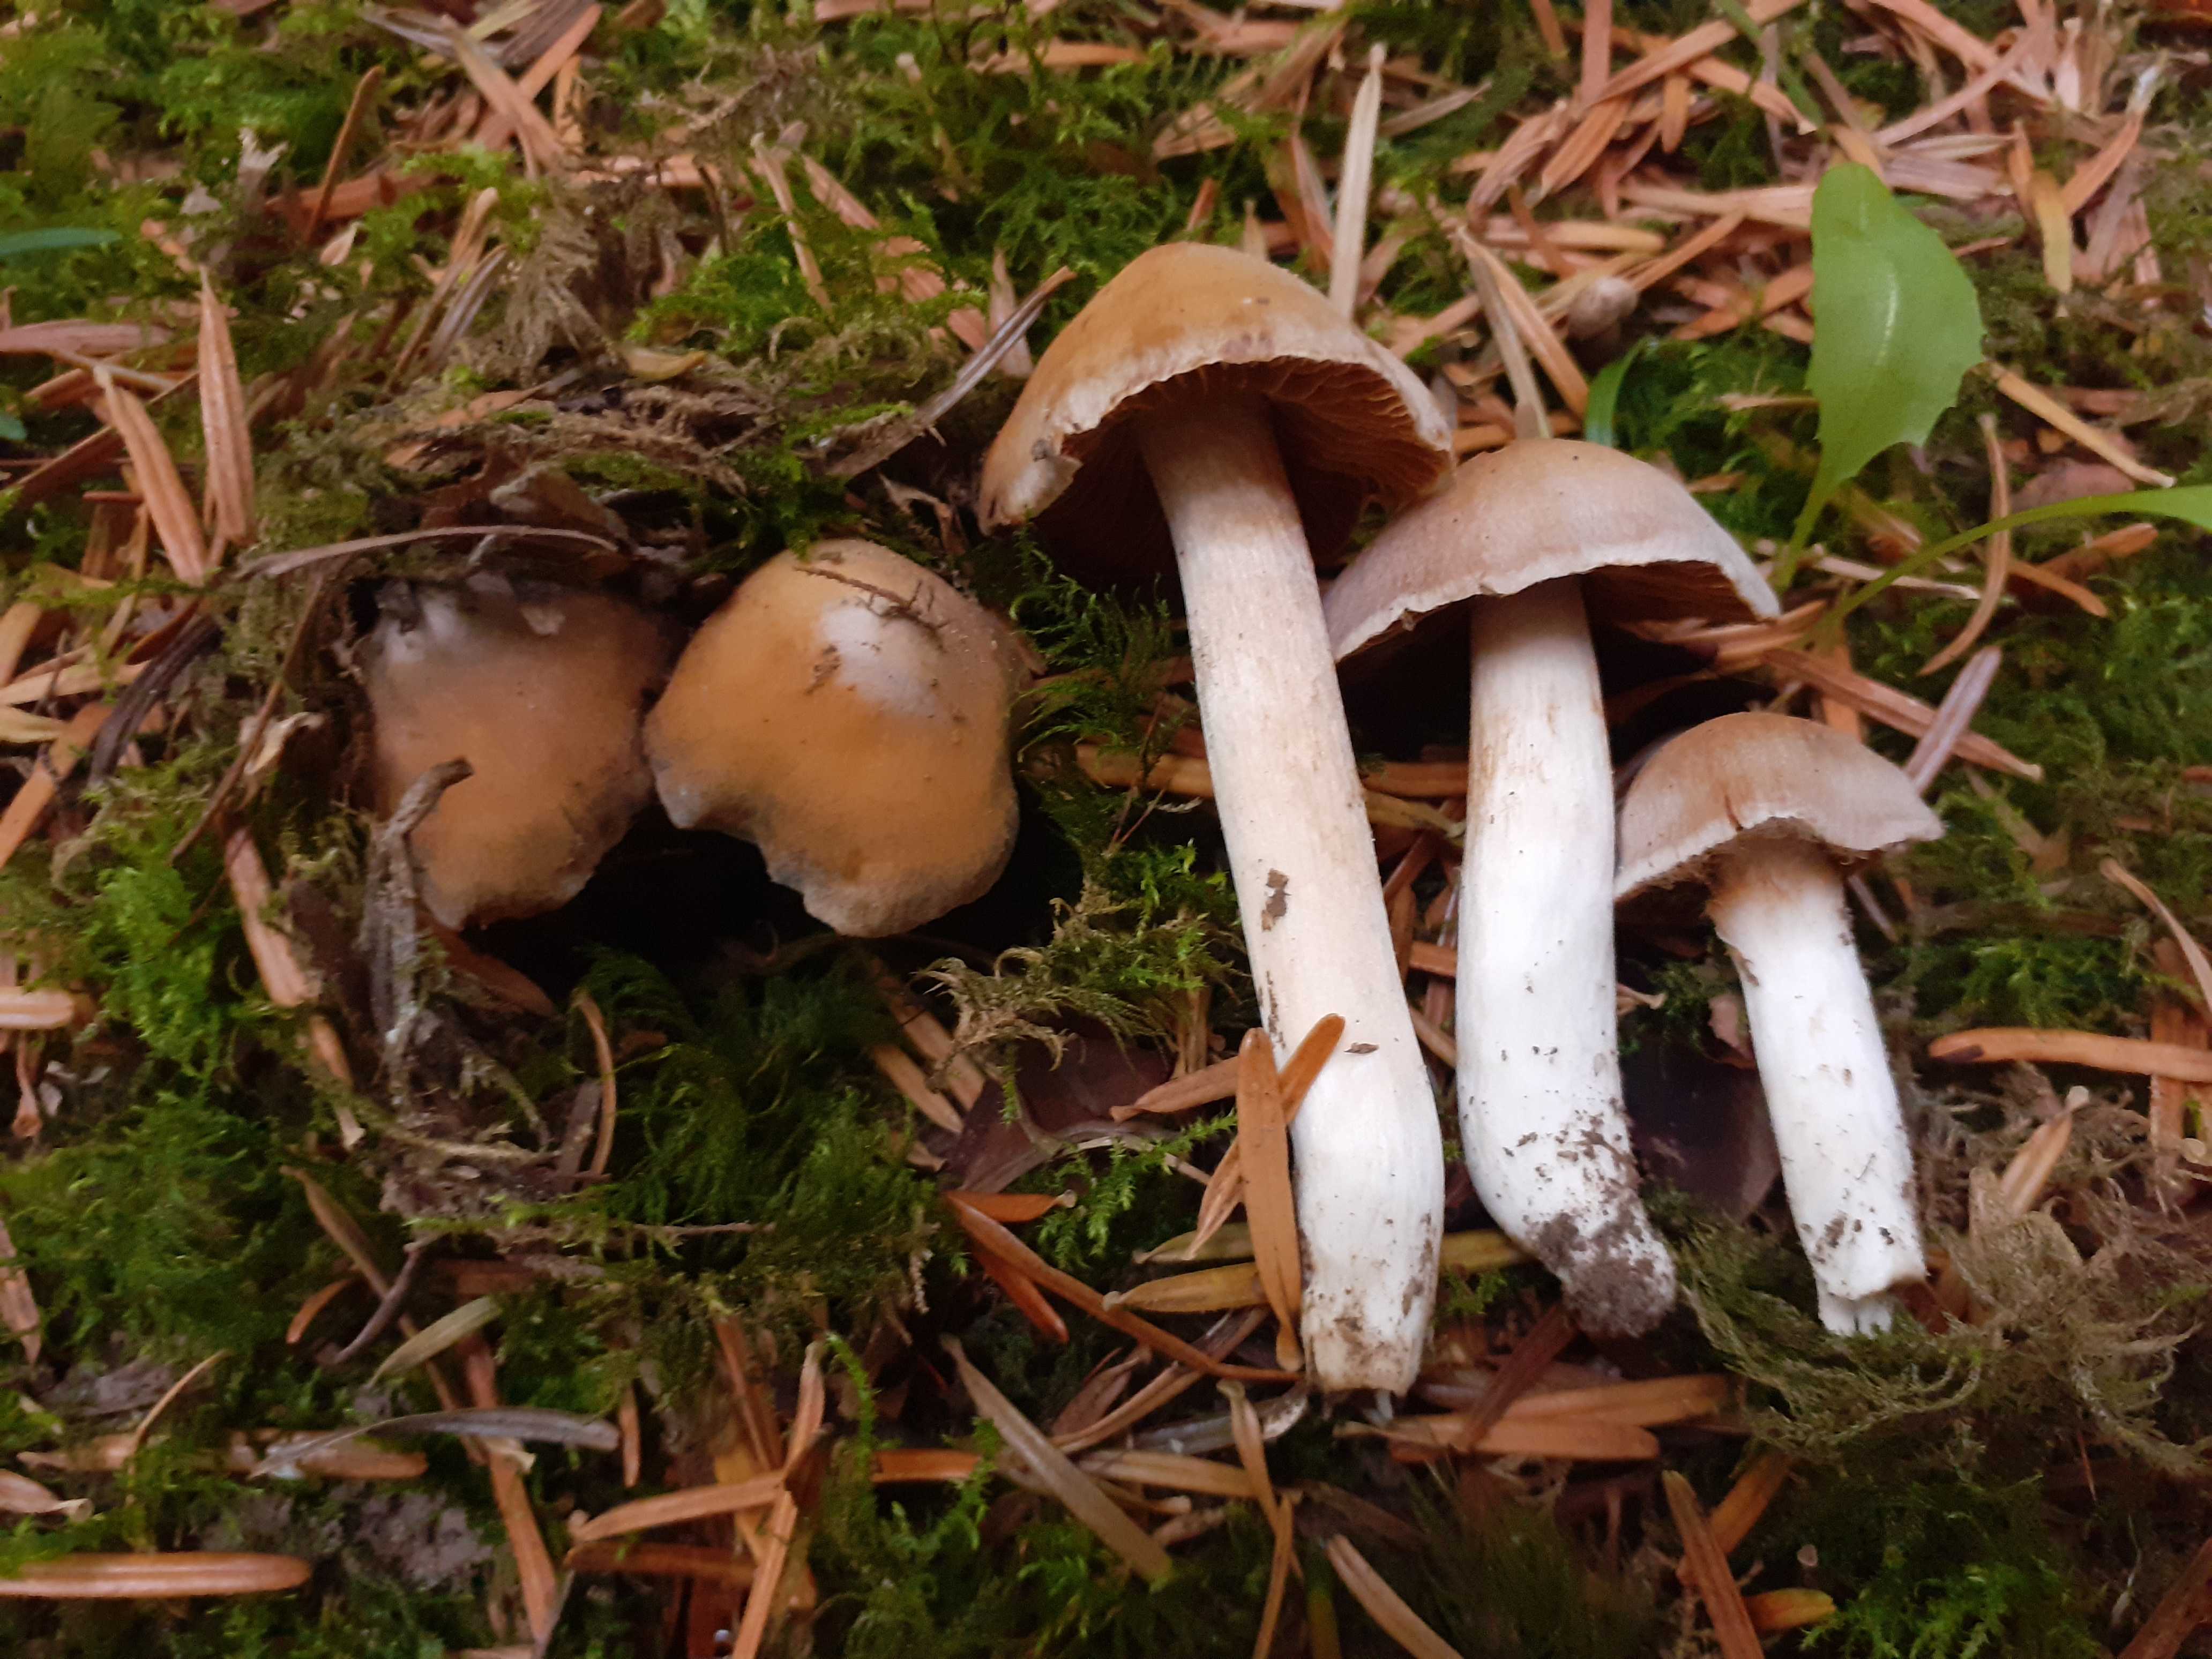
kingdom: Fungi
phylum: Basidiomycota
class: Agaricomycetes
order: Agaricales
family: Cortinariaceae
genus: Cortinarius
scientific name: Cortinarius acetosus
